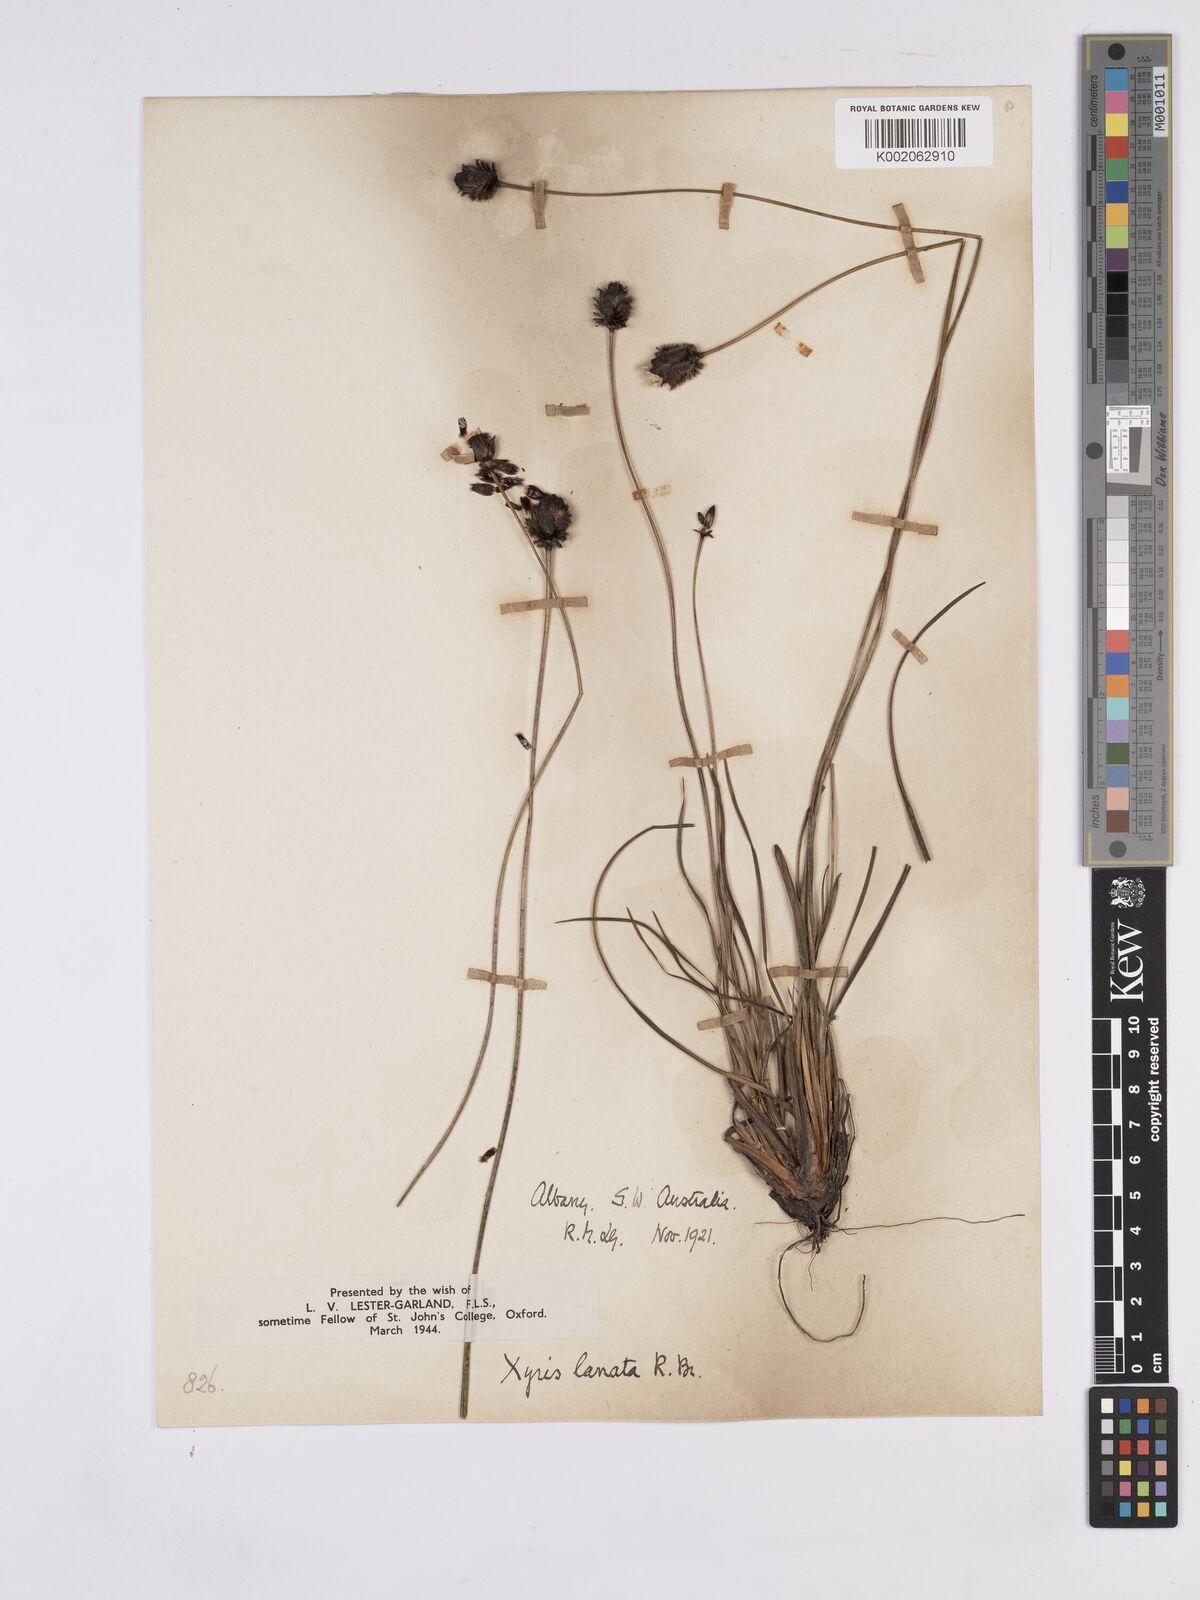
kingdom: Plantae
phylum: Tracheophyta
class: Liliopsida
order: Poales
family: Xyridaceae
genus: Xyris
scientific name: Xyris lanata
